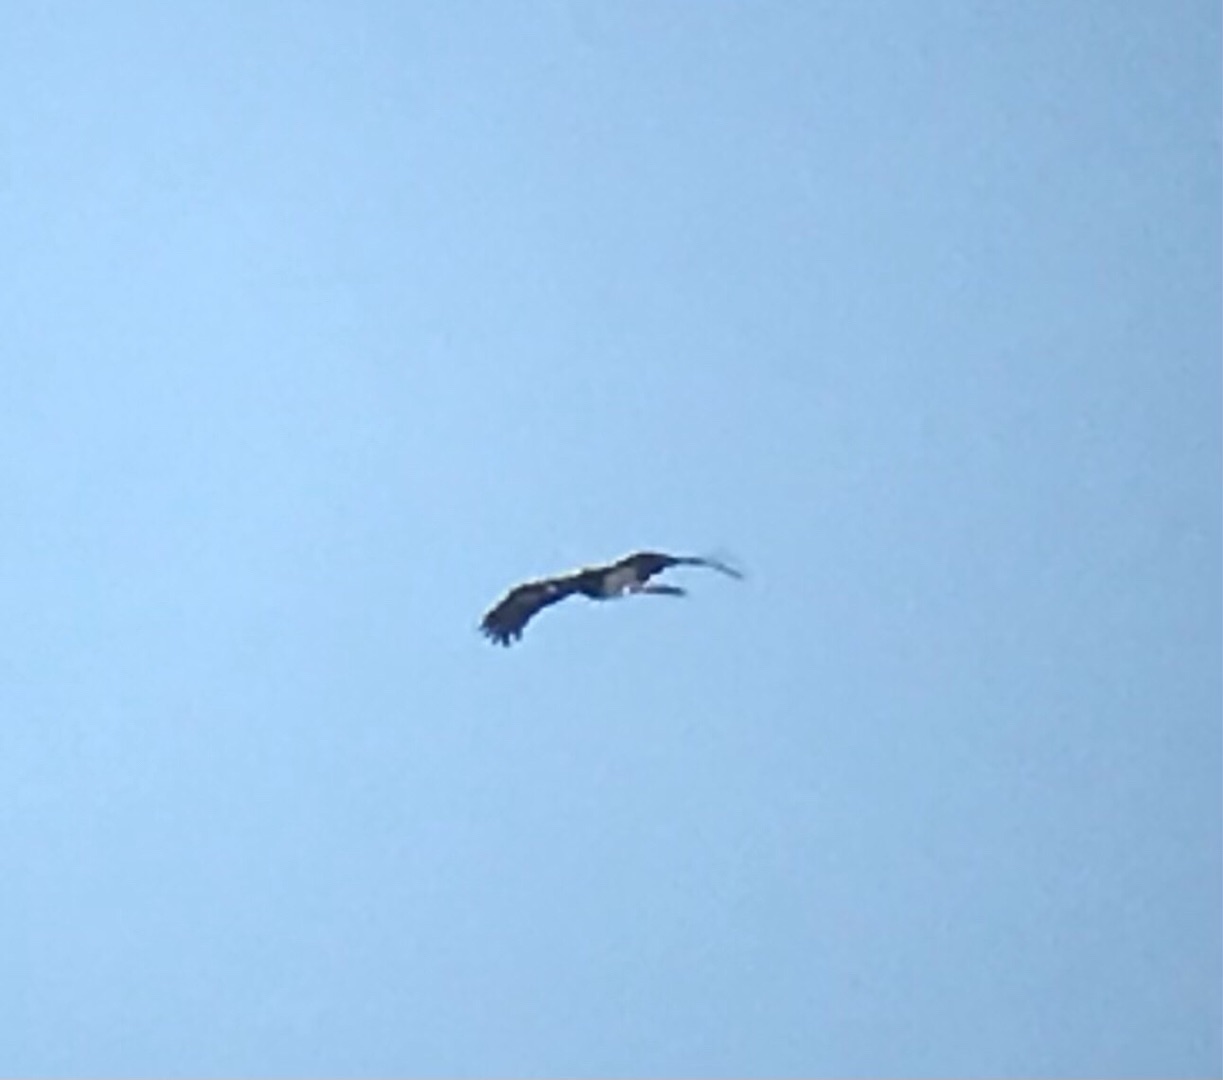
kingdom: Animalia
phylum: Chordata
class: Aves
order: Ciconiiformes
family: Ciconiidae
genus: Ciconia
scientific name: Ciconia nigra
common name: Sort stork
